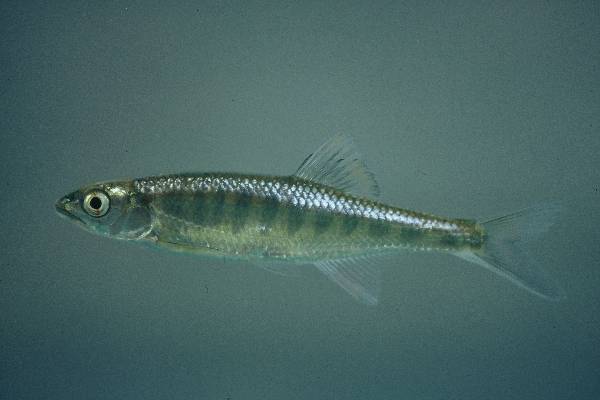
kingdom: Animalia
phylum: Chordata
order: Cypriniformes
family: Cyprinidae
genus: Opsaridium
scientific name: Opsaridium zambezense
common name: Barred minnow
